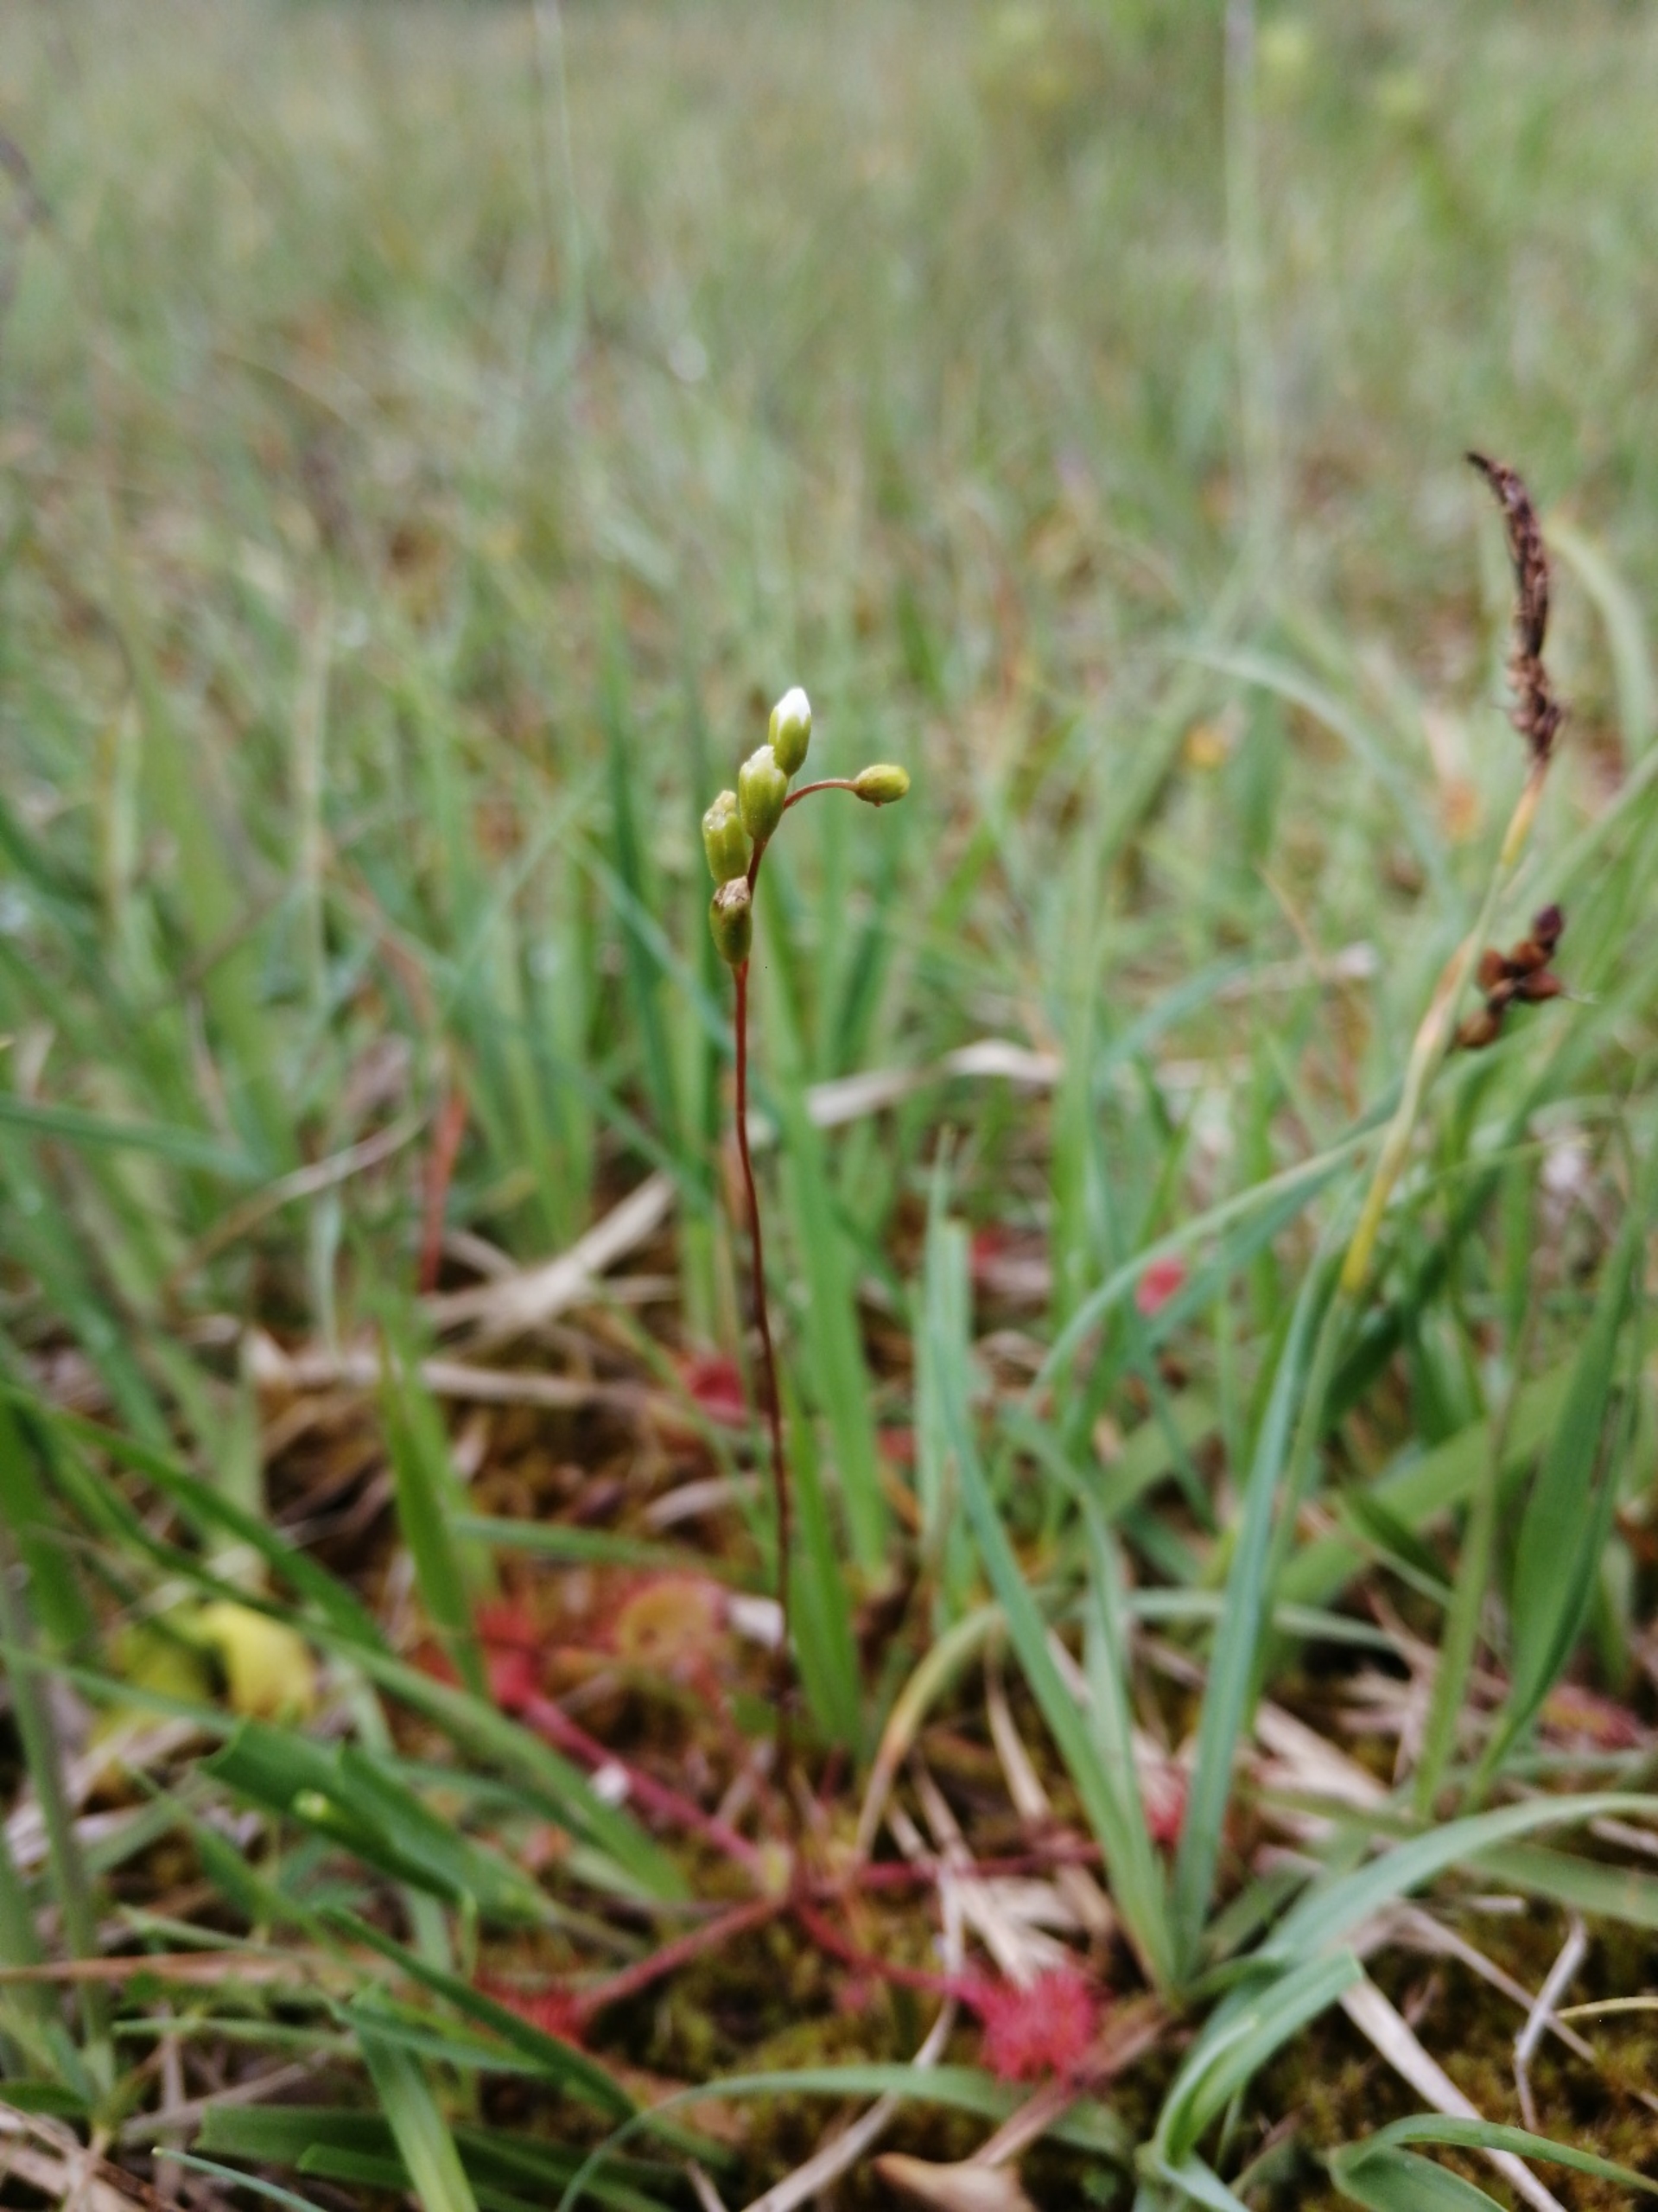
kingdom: Plantae
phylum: Tracheophyta
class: Magnoliopsida
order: Caryophyllales
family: Droseraceae
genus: Drosera
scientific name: Drosera rotundifolia
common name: Rundbladet soldug
